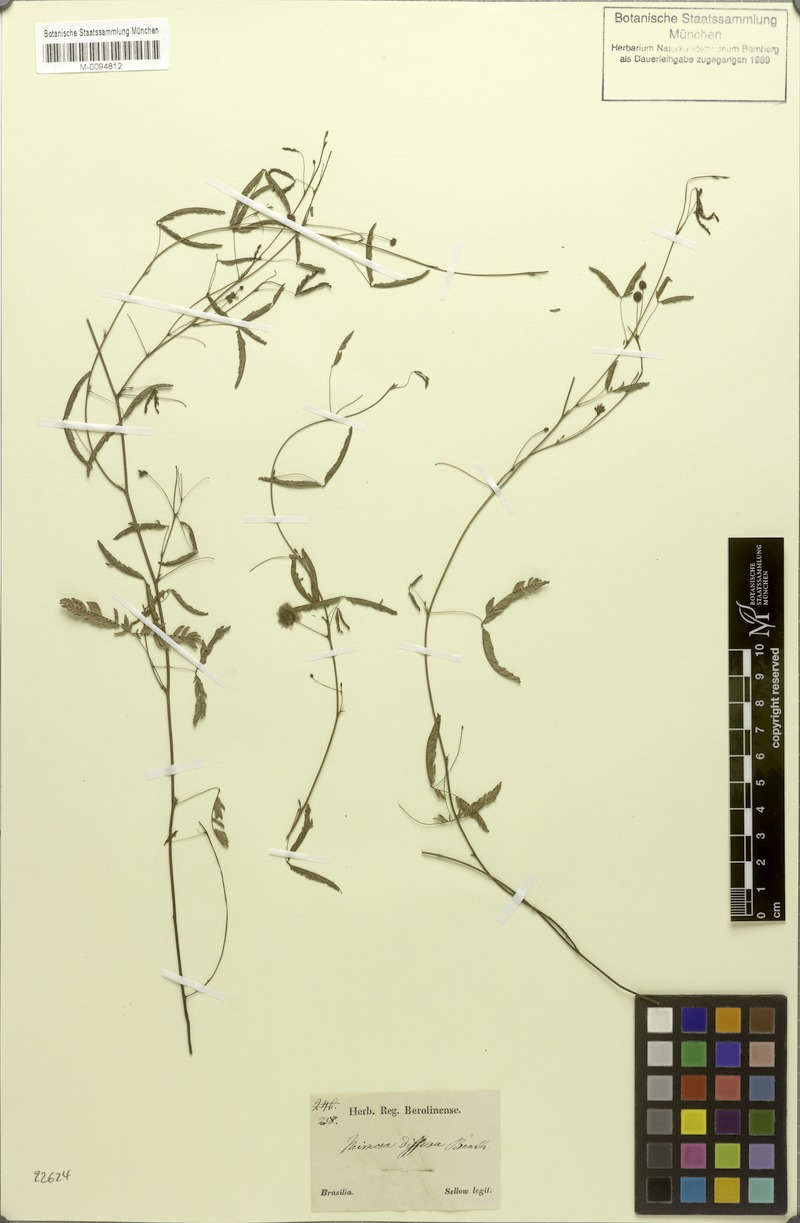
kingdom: Plantae
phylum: Tracheophyta
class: Magnoliopsida
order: Fabales
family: Fabaceae
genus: Mimosa
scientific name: Mimosa diffusa
